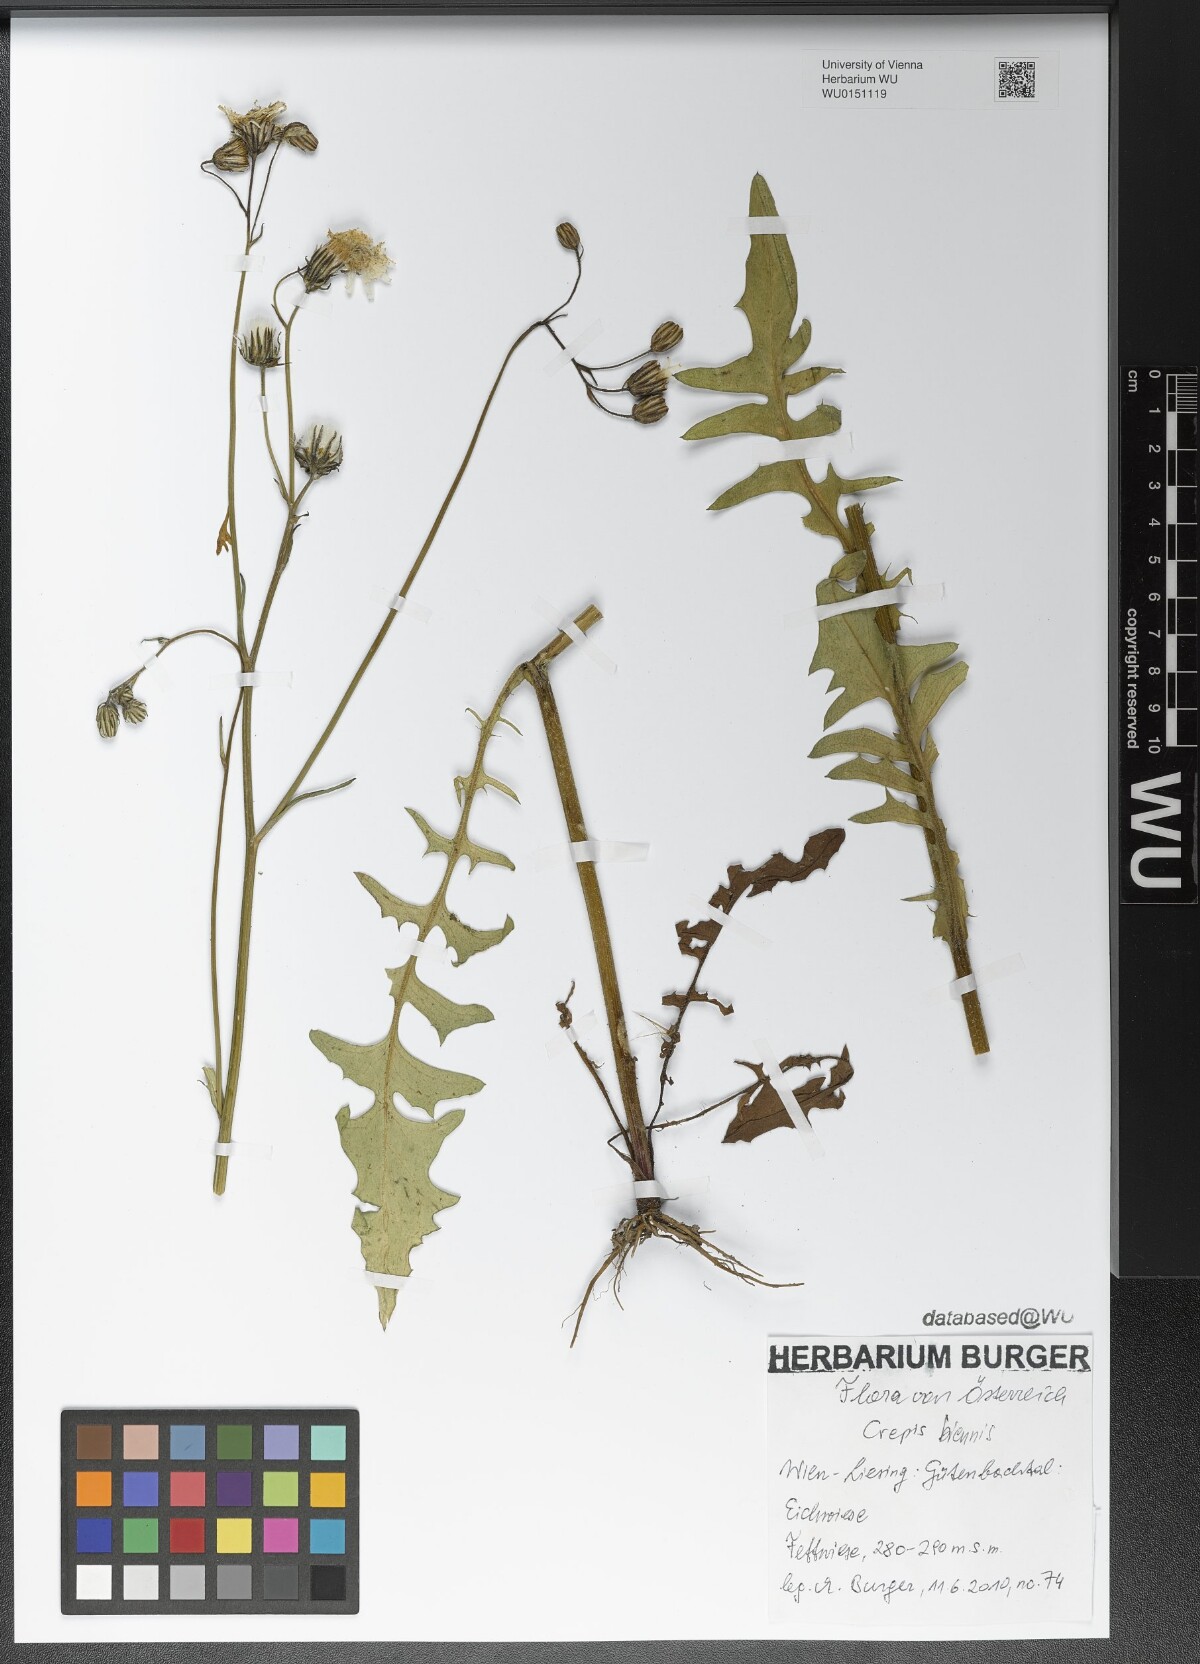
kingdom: Plantae
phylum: Tracheophyta
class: Magnoliopsida
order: Asterales
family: Asteraceae
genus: Crepis
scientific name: Crepis biennis
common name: Rough hawk's-beard
